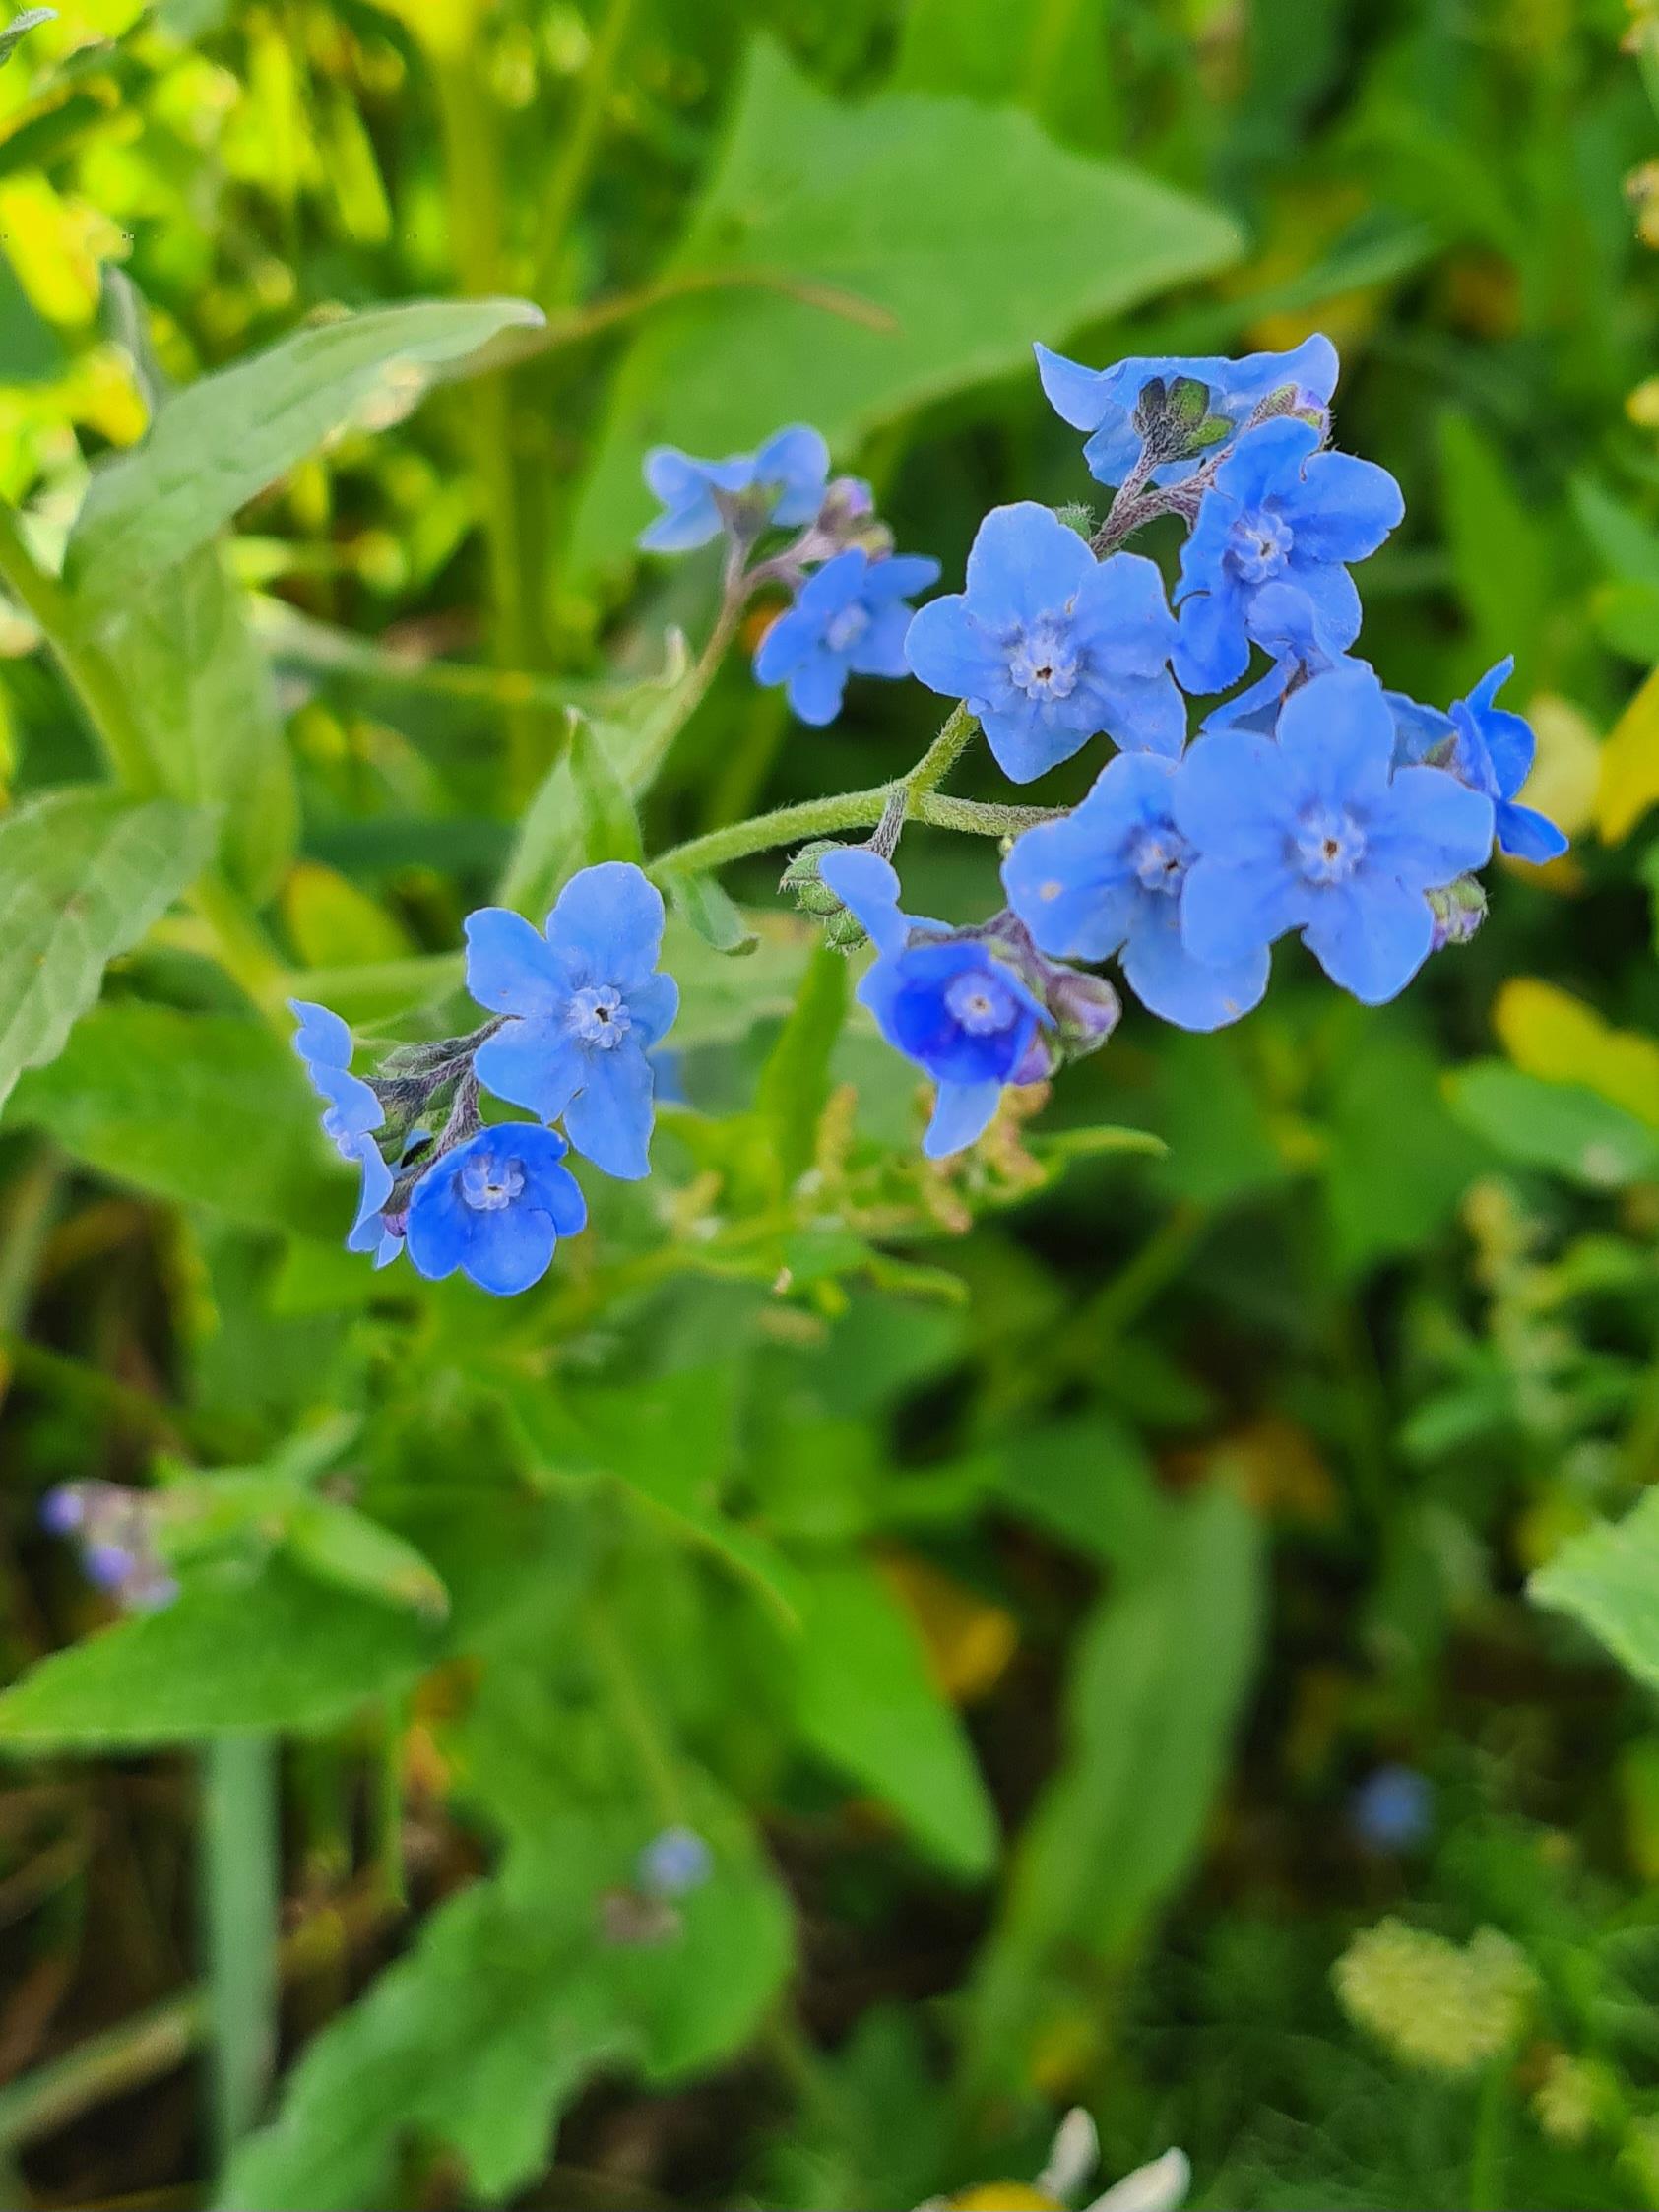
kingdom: Plantae
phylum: Tracheophyta
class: Magnoliopsida
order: Boraginales
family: Boraginaceae
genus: Cynoglossum
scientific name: Cynoglossum amabile
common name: Kinesisk hundetunge
